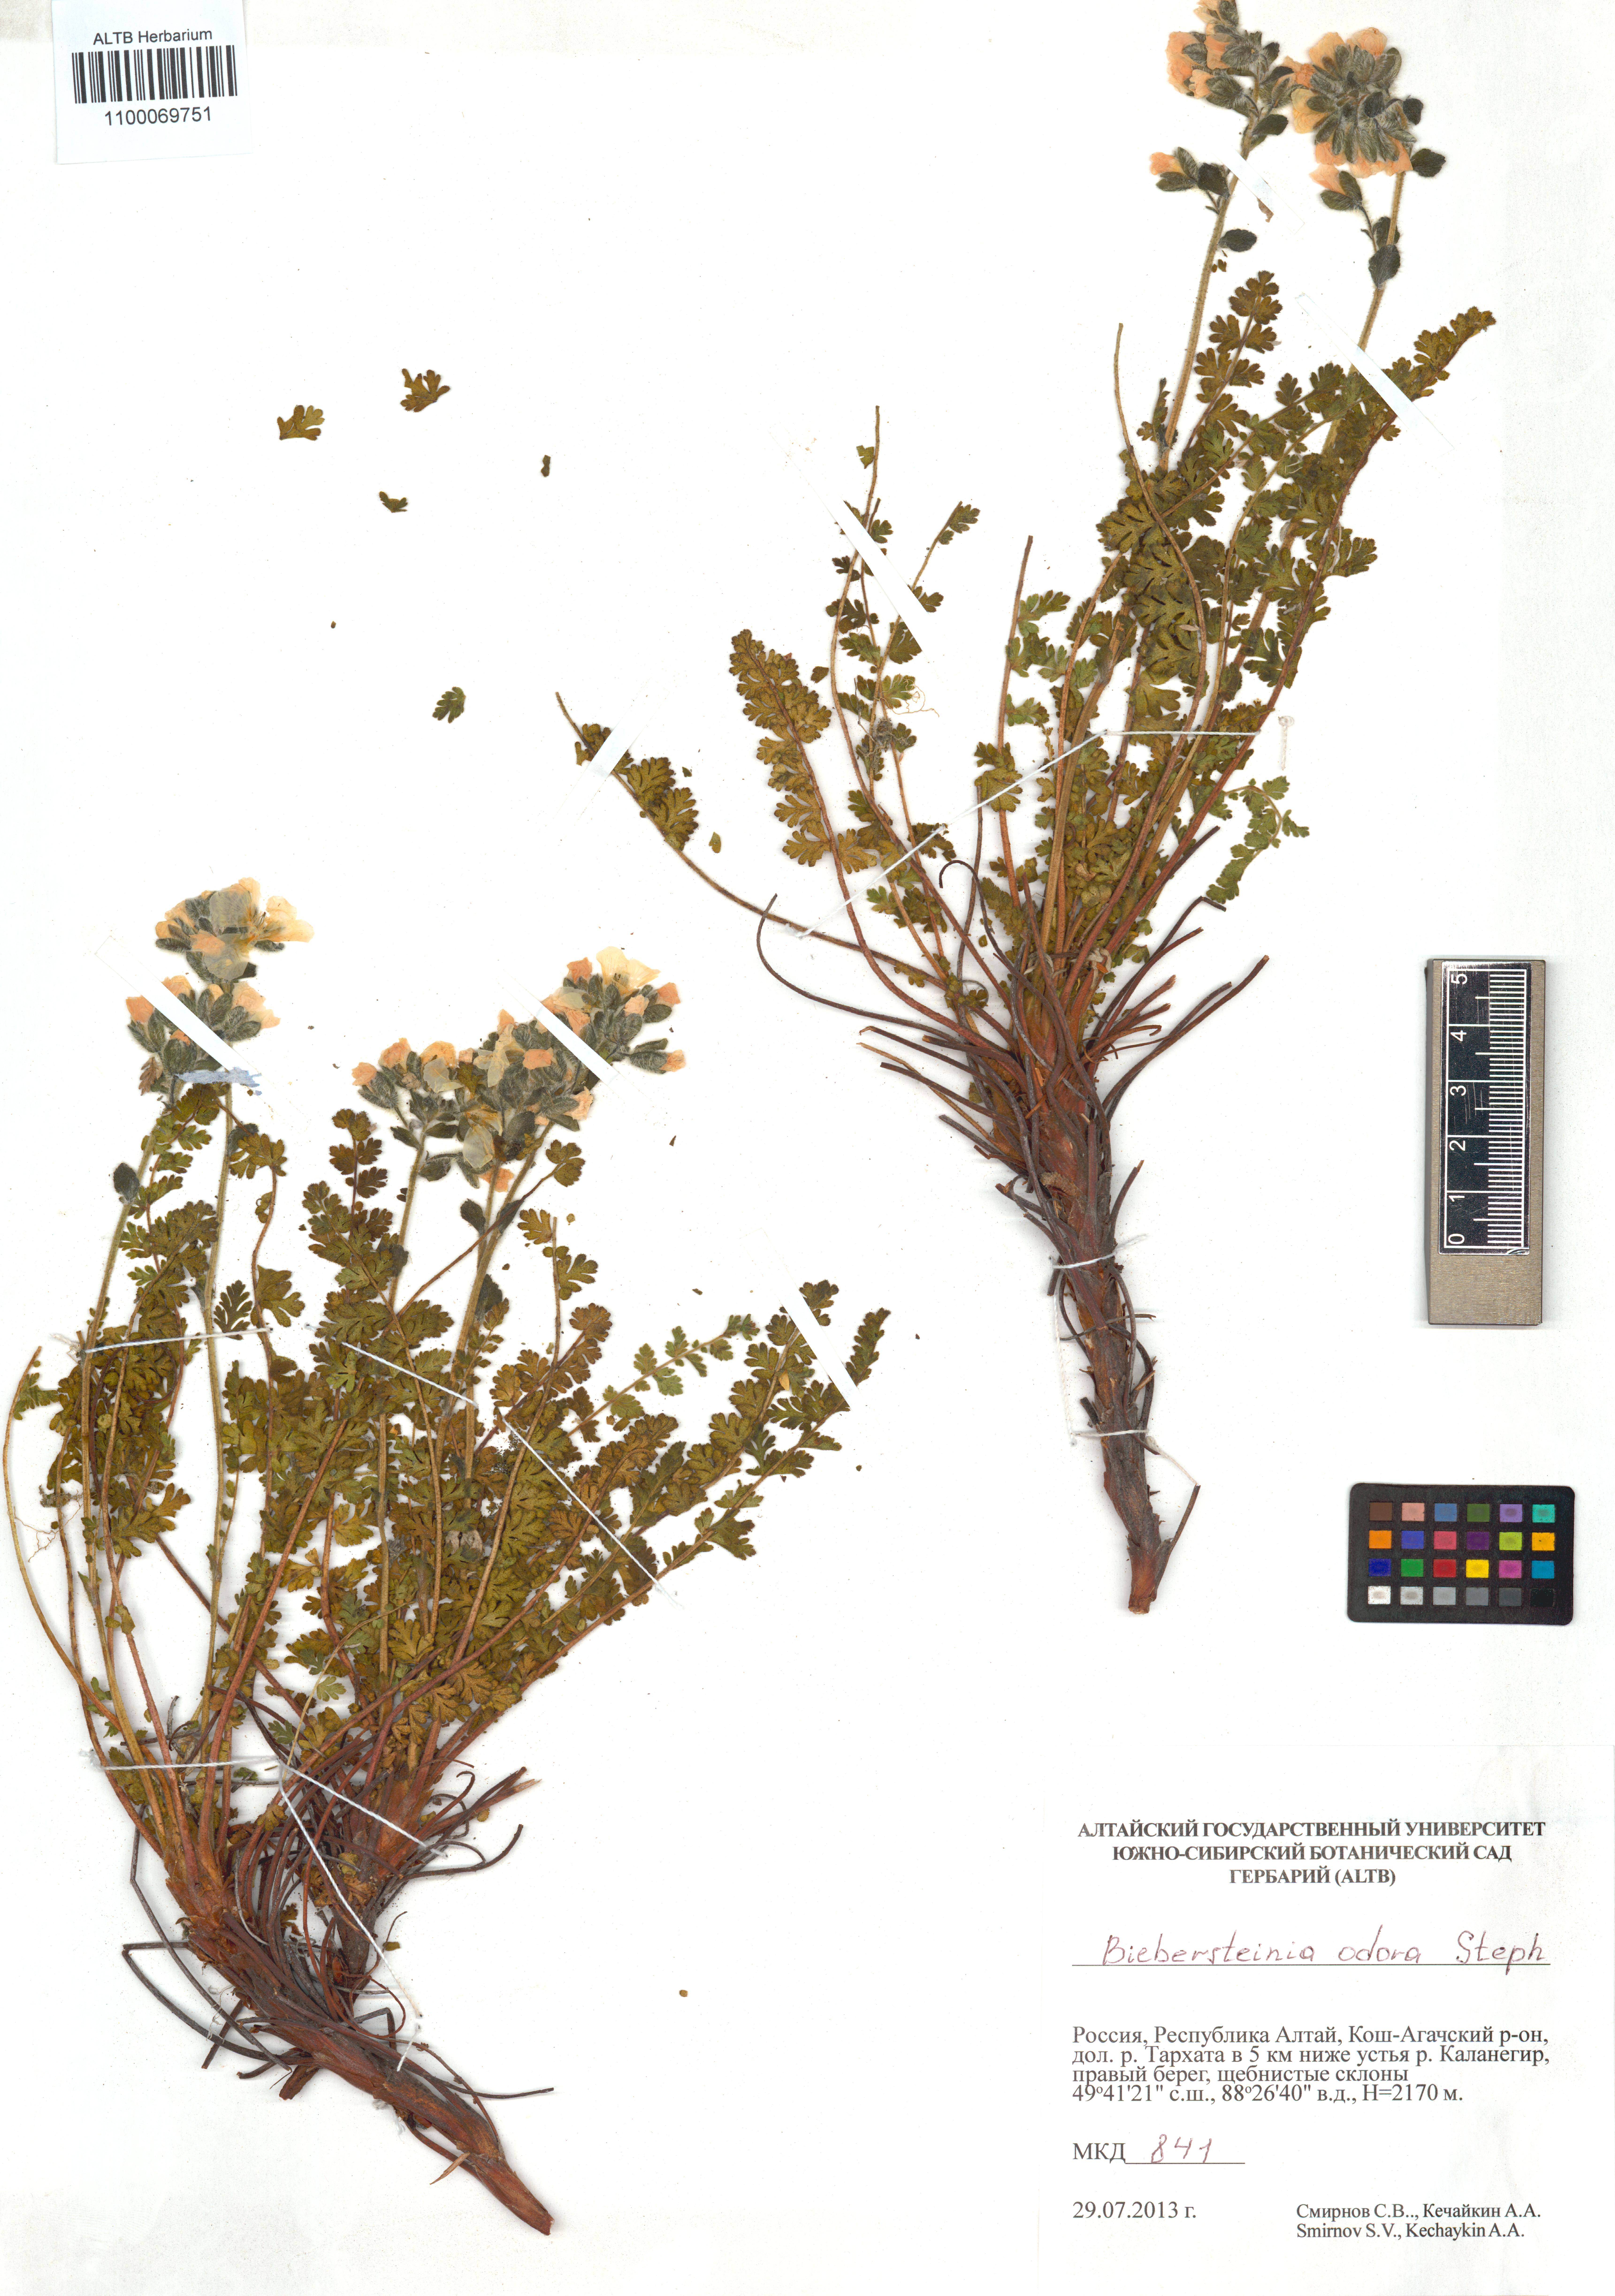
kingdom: Plantae
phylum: Tracheophyta
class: Magnoliopsida
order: Sapindales
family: Biebersteiniaceae
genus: Biebersteinia
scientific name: Biebersteinia odora
